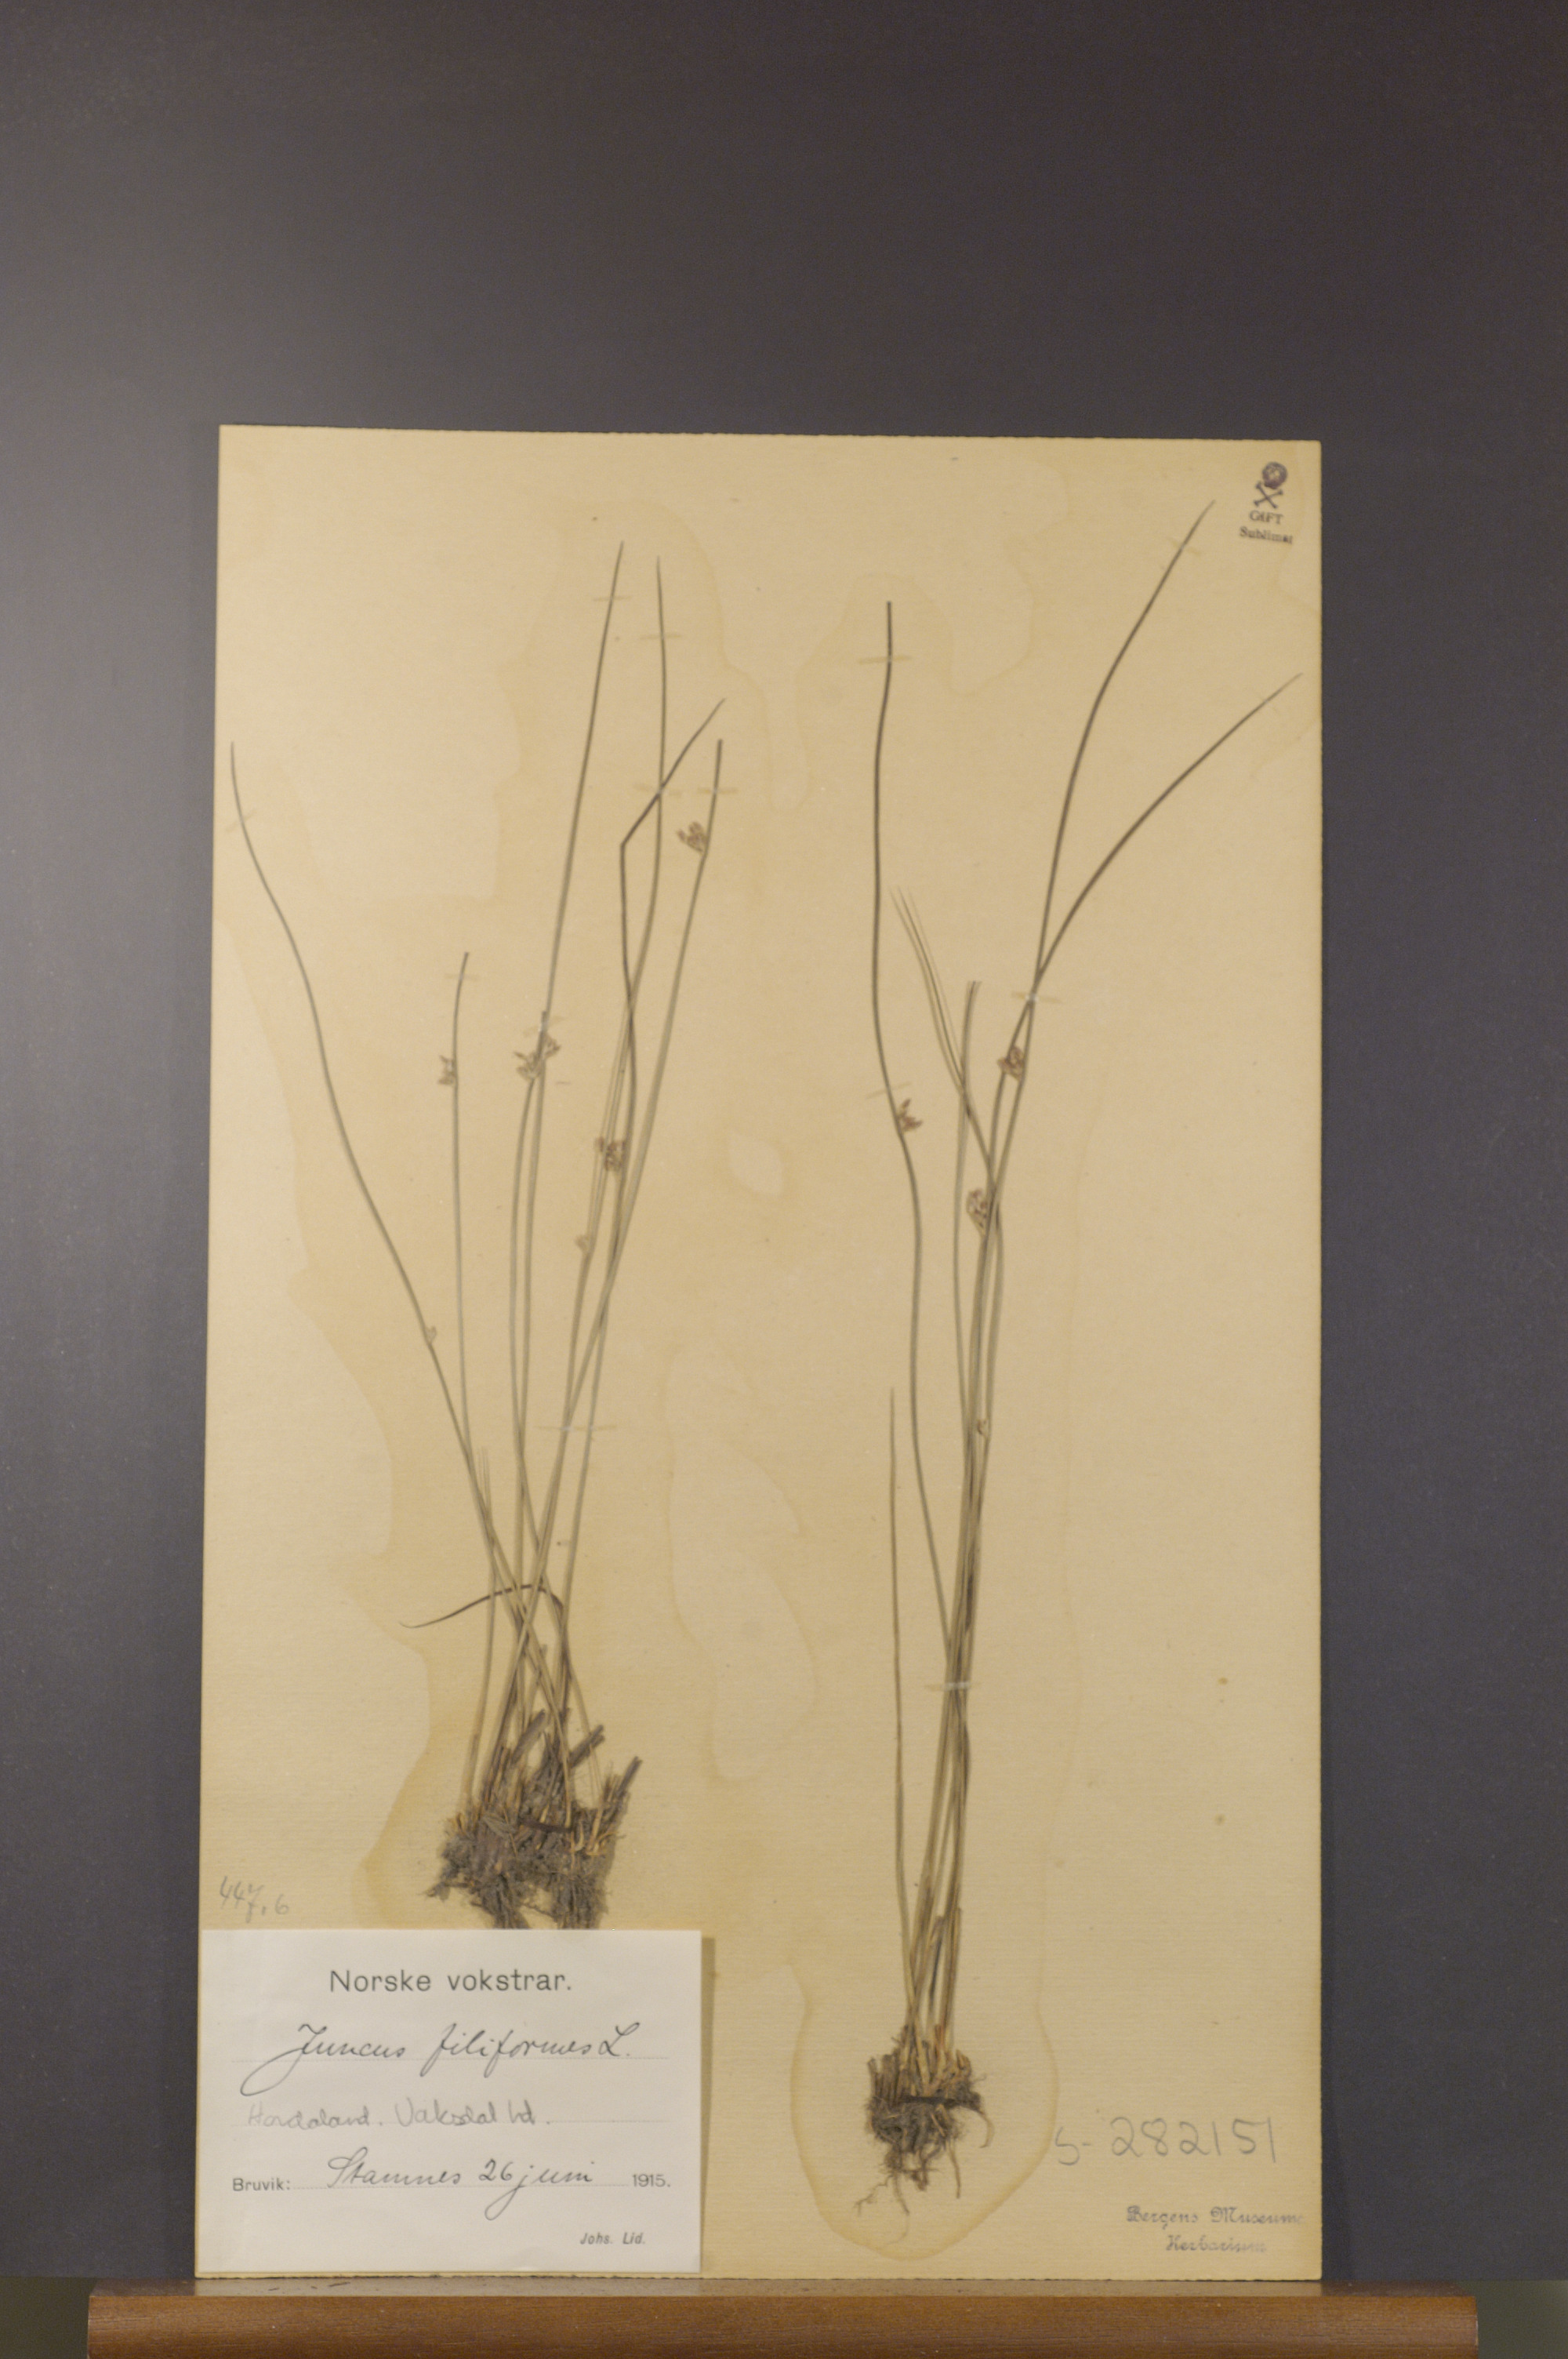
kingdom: Plantae
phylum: Tracheophyta
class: Liliopsida
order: Poales
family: Juncaceae
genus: Juncus
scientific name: Juncus filiformis
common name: Thread rush
